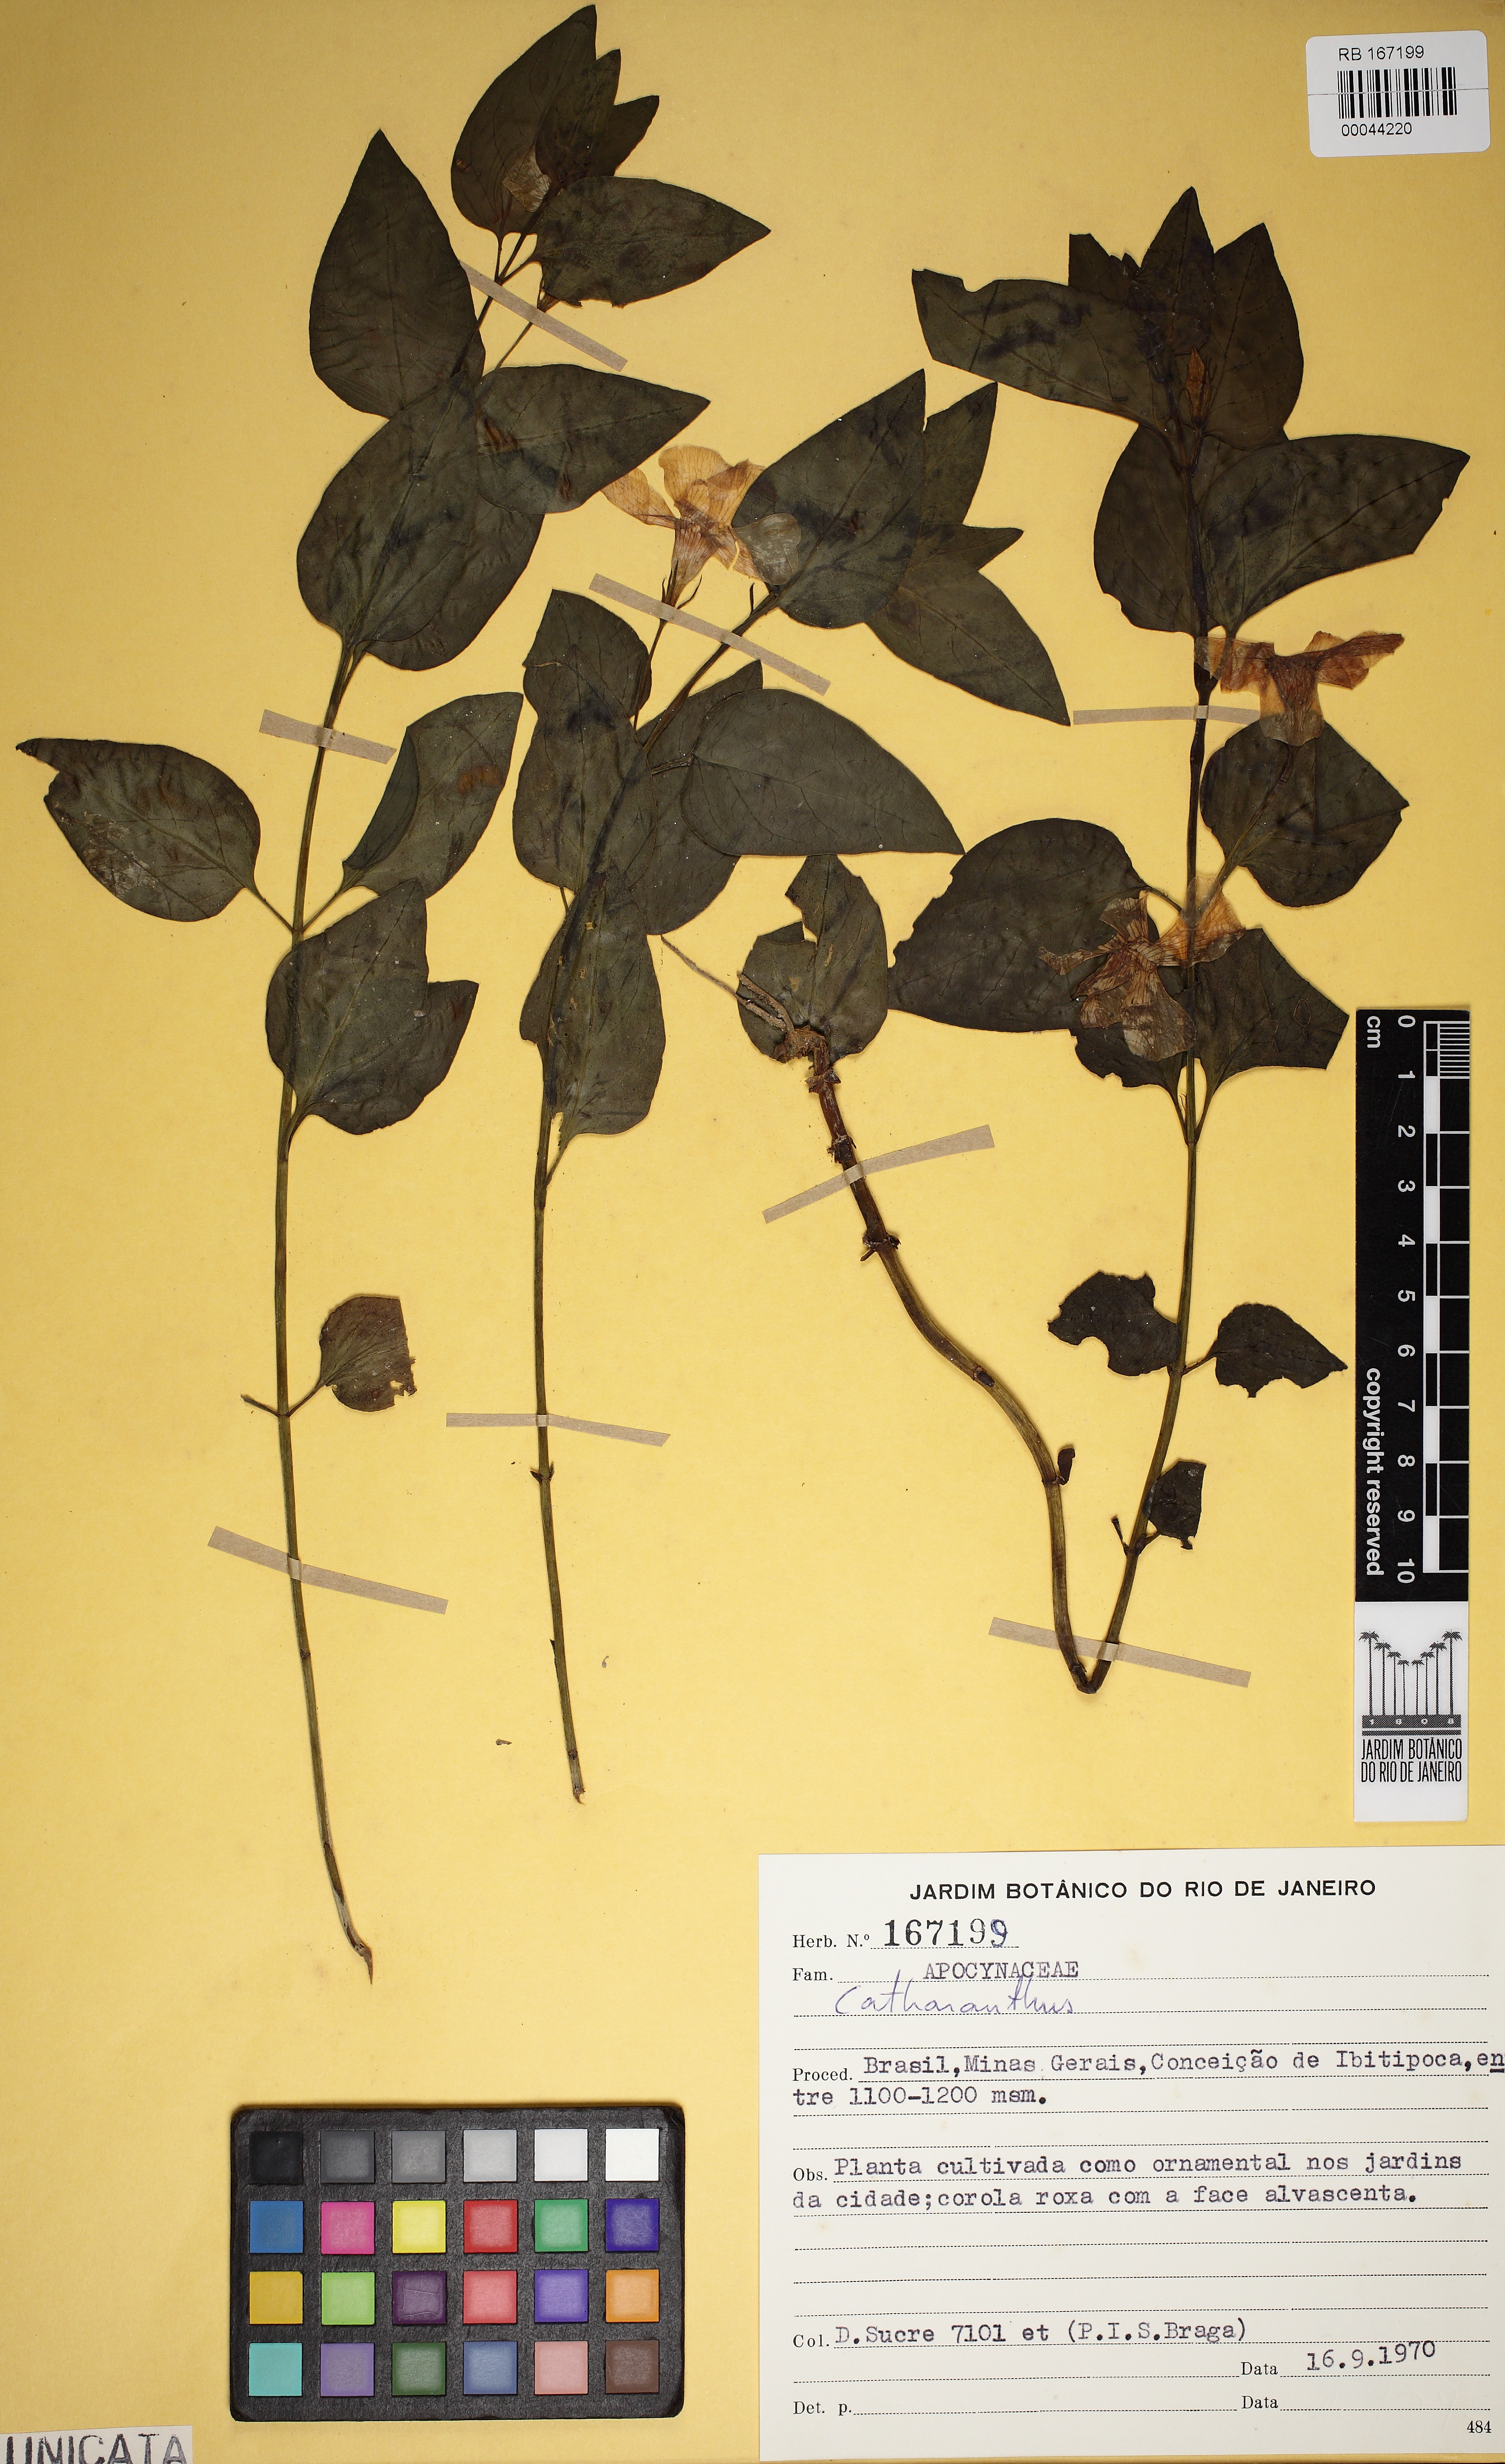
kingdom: Plantae
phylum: Tracheophyta
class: Magnoliopsida
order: Gentianales
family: Apocynaceae
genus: Catharanthus
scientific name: Catharanthus
